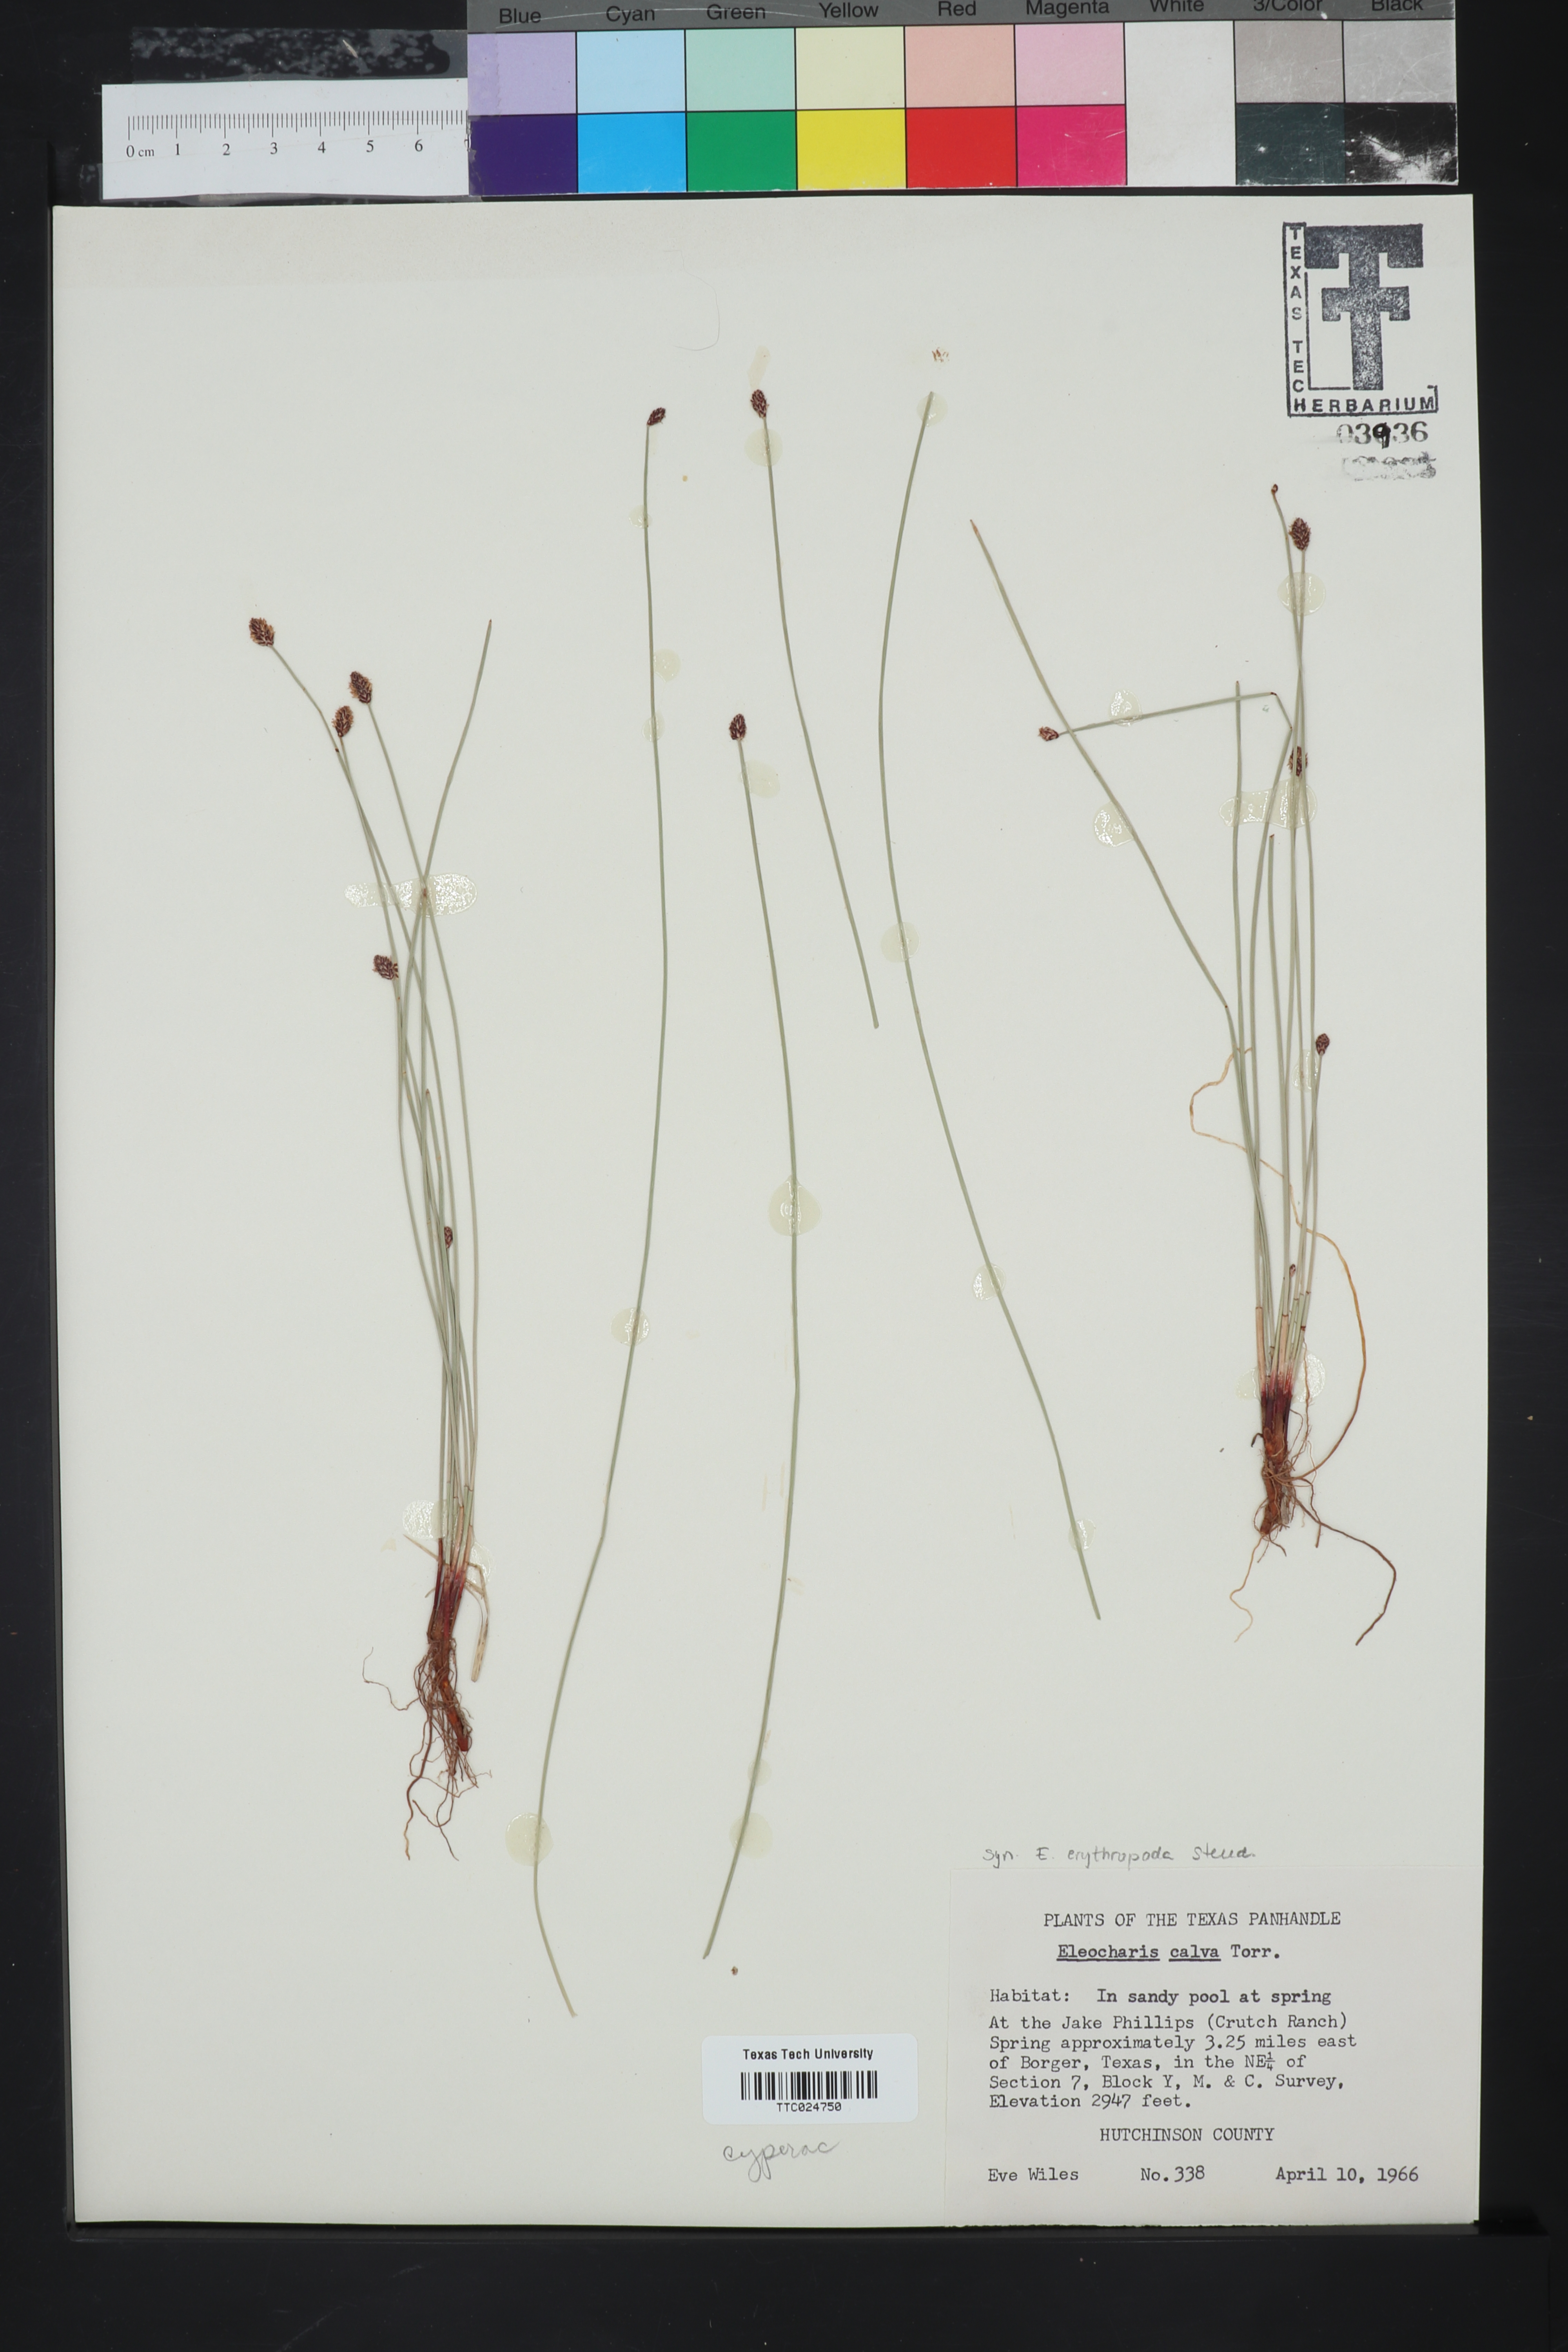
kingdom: Plantae
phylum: Tracheophyta
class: Liliopsida
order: Poales
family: Cyperaceae
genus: Eleocharis
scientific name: Eleocharis calva
